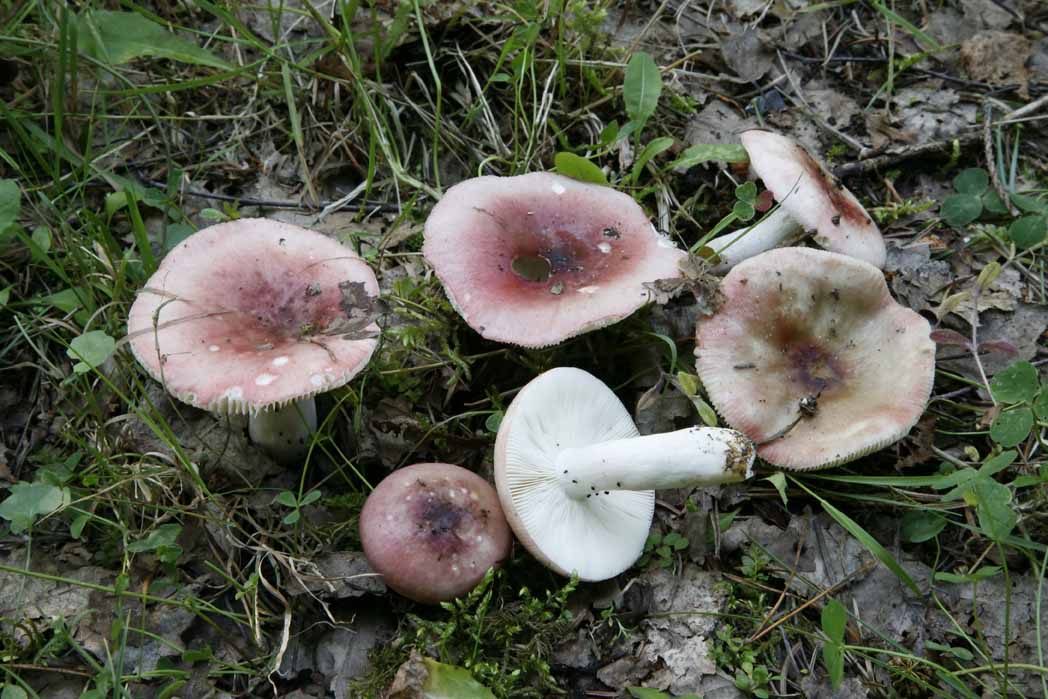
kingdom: Fungi
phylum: Basidiomycota
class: Agaricomycetes
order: Russulales
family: Russulaceae
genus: Russula
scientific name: Russula depallens
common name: falmende skørhat
